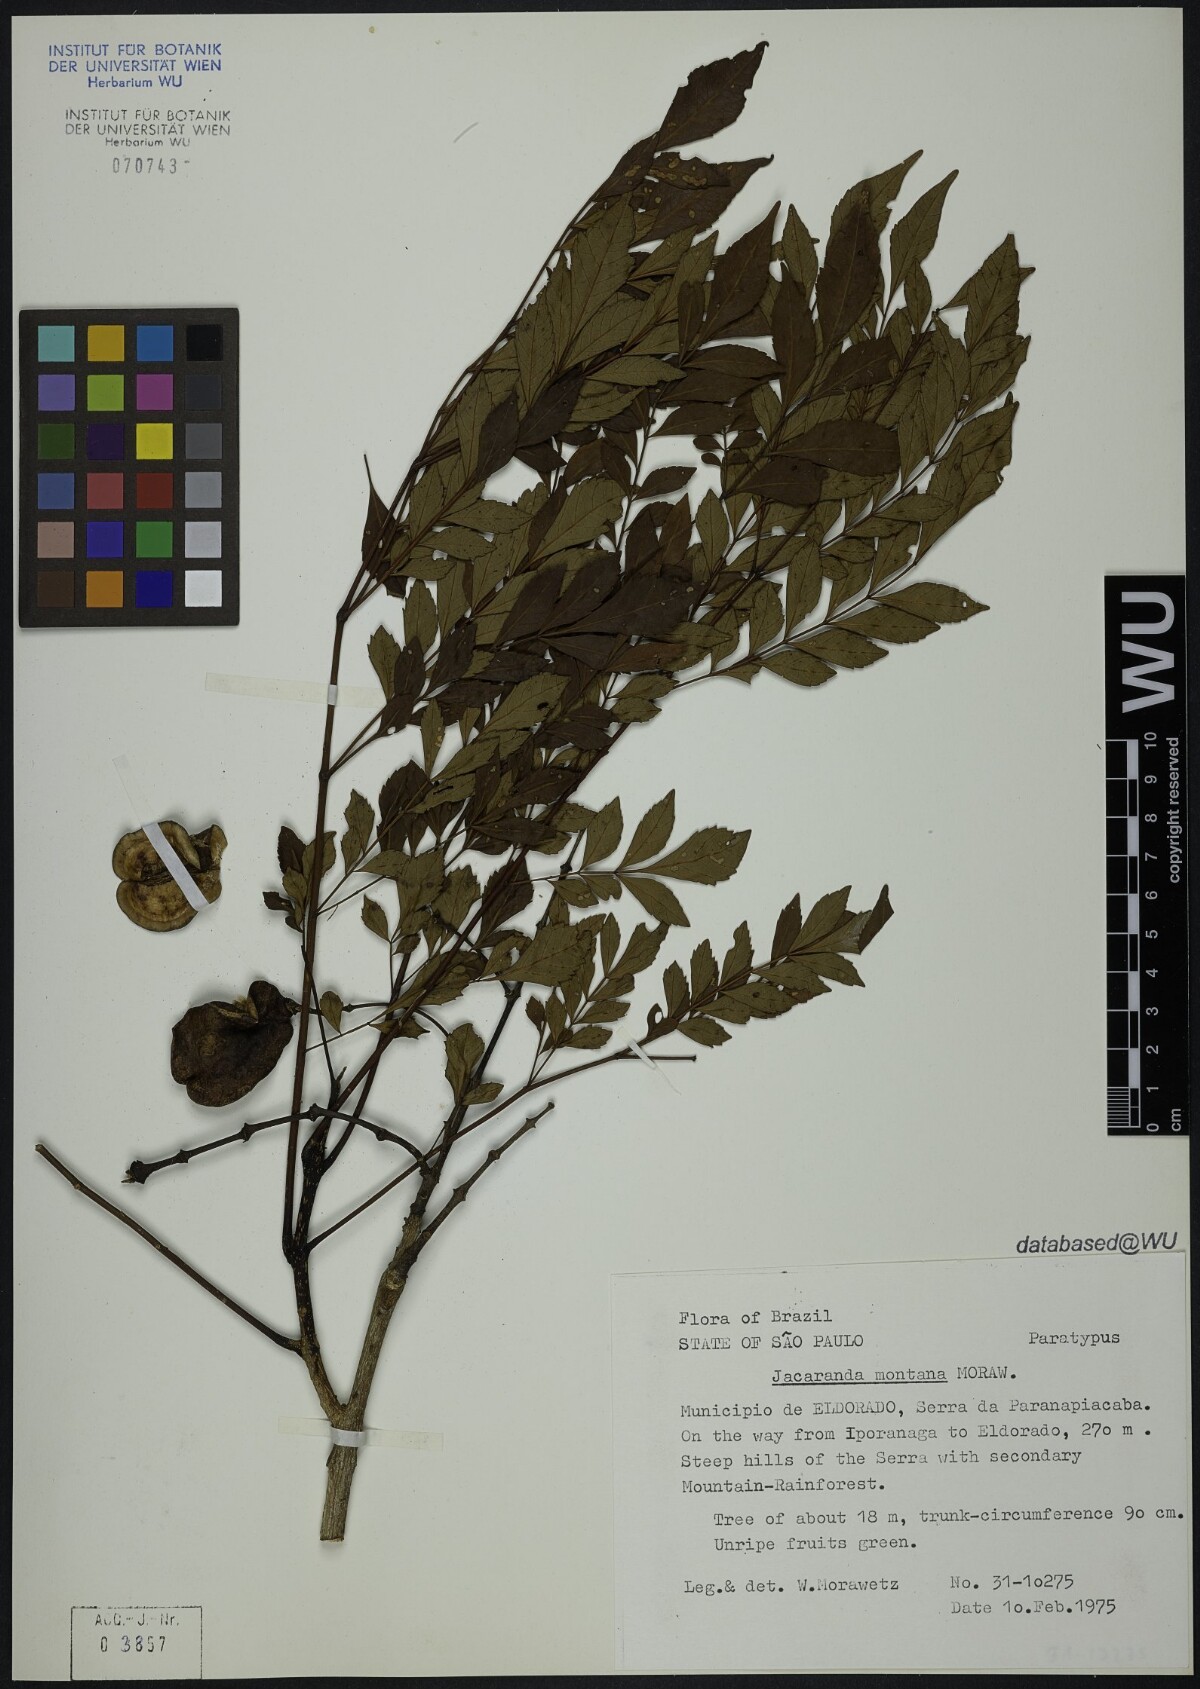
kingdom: Plantae
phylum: Tracheophyta
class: Magnoliopsida
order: Lamiales
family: Bignoniaceae
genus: Jacaranda
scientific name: Jacaranda montana
